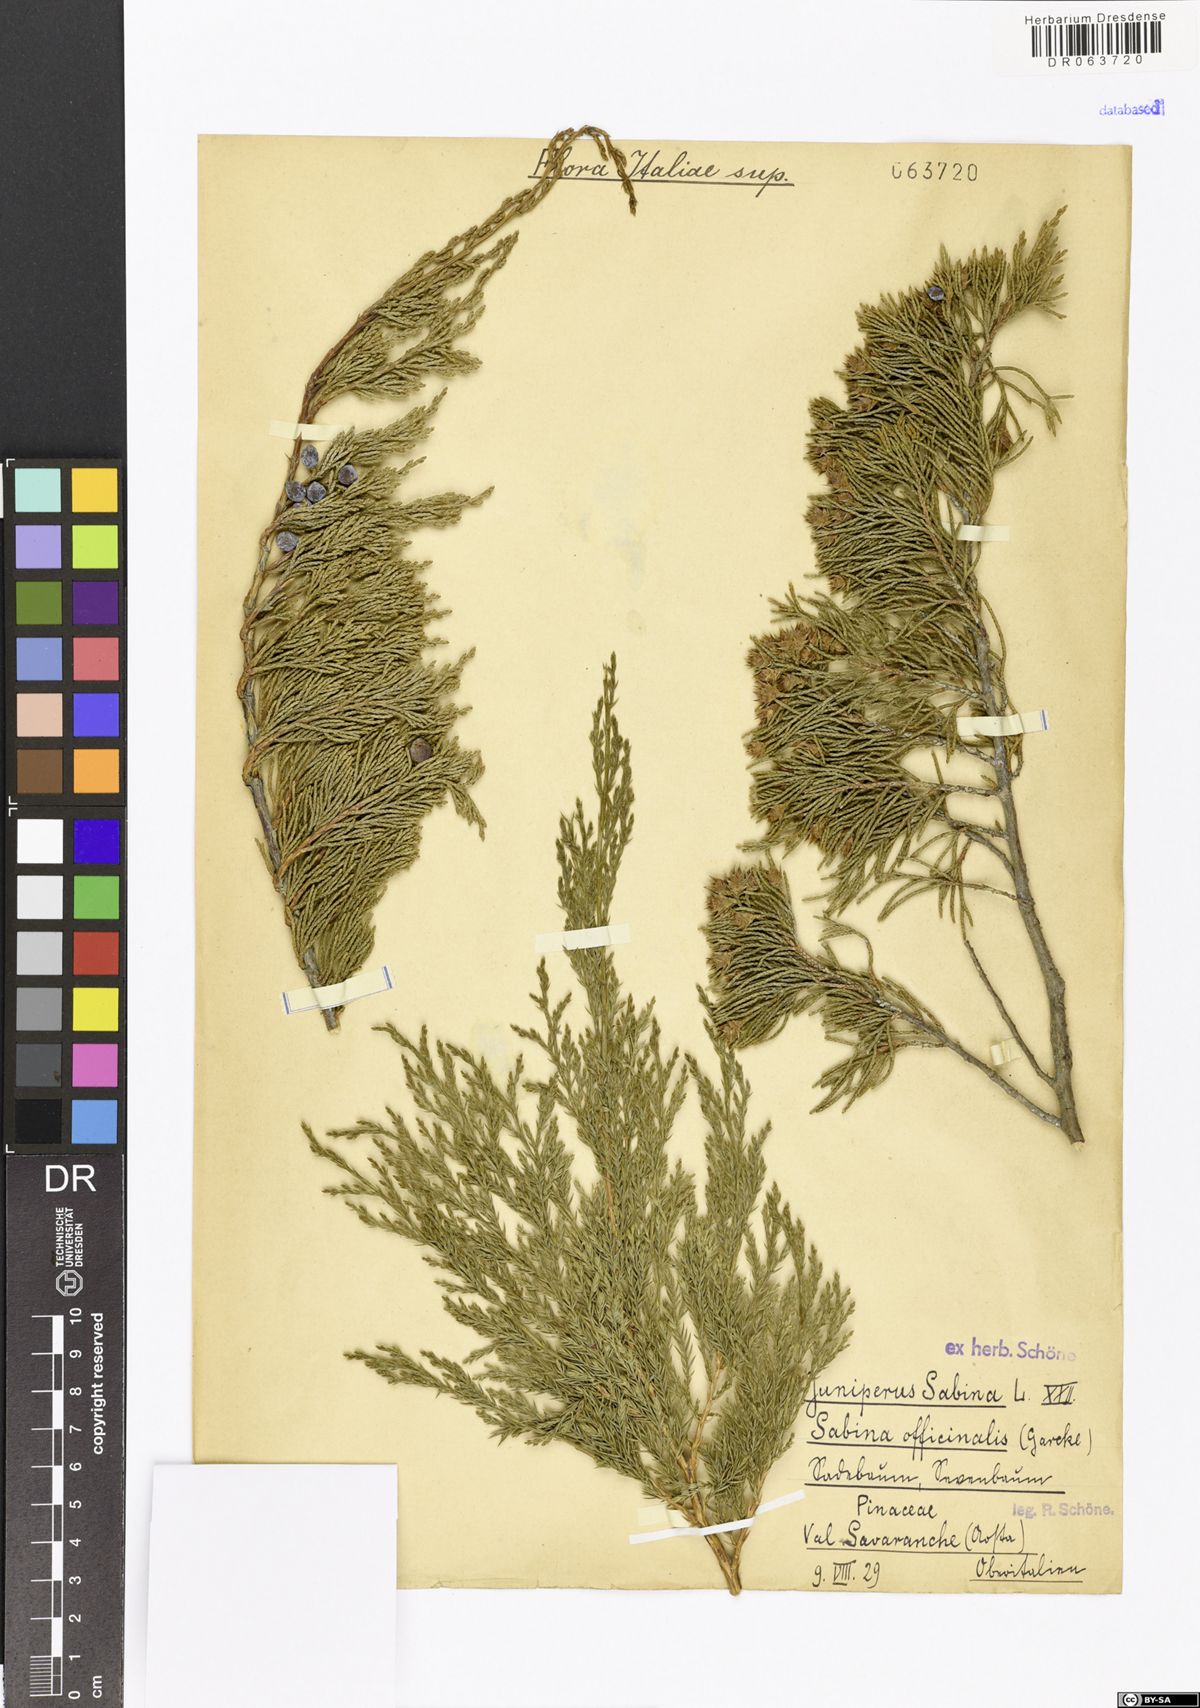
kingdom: Plantae
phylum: Tracheophyta
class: Pinopsida
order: Pinales
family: Cupressaceae
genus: Juniperus
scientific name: Juniperus sabina
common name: Savin
